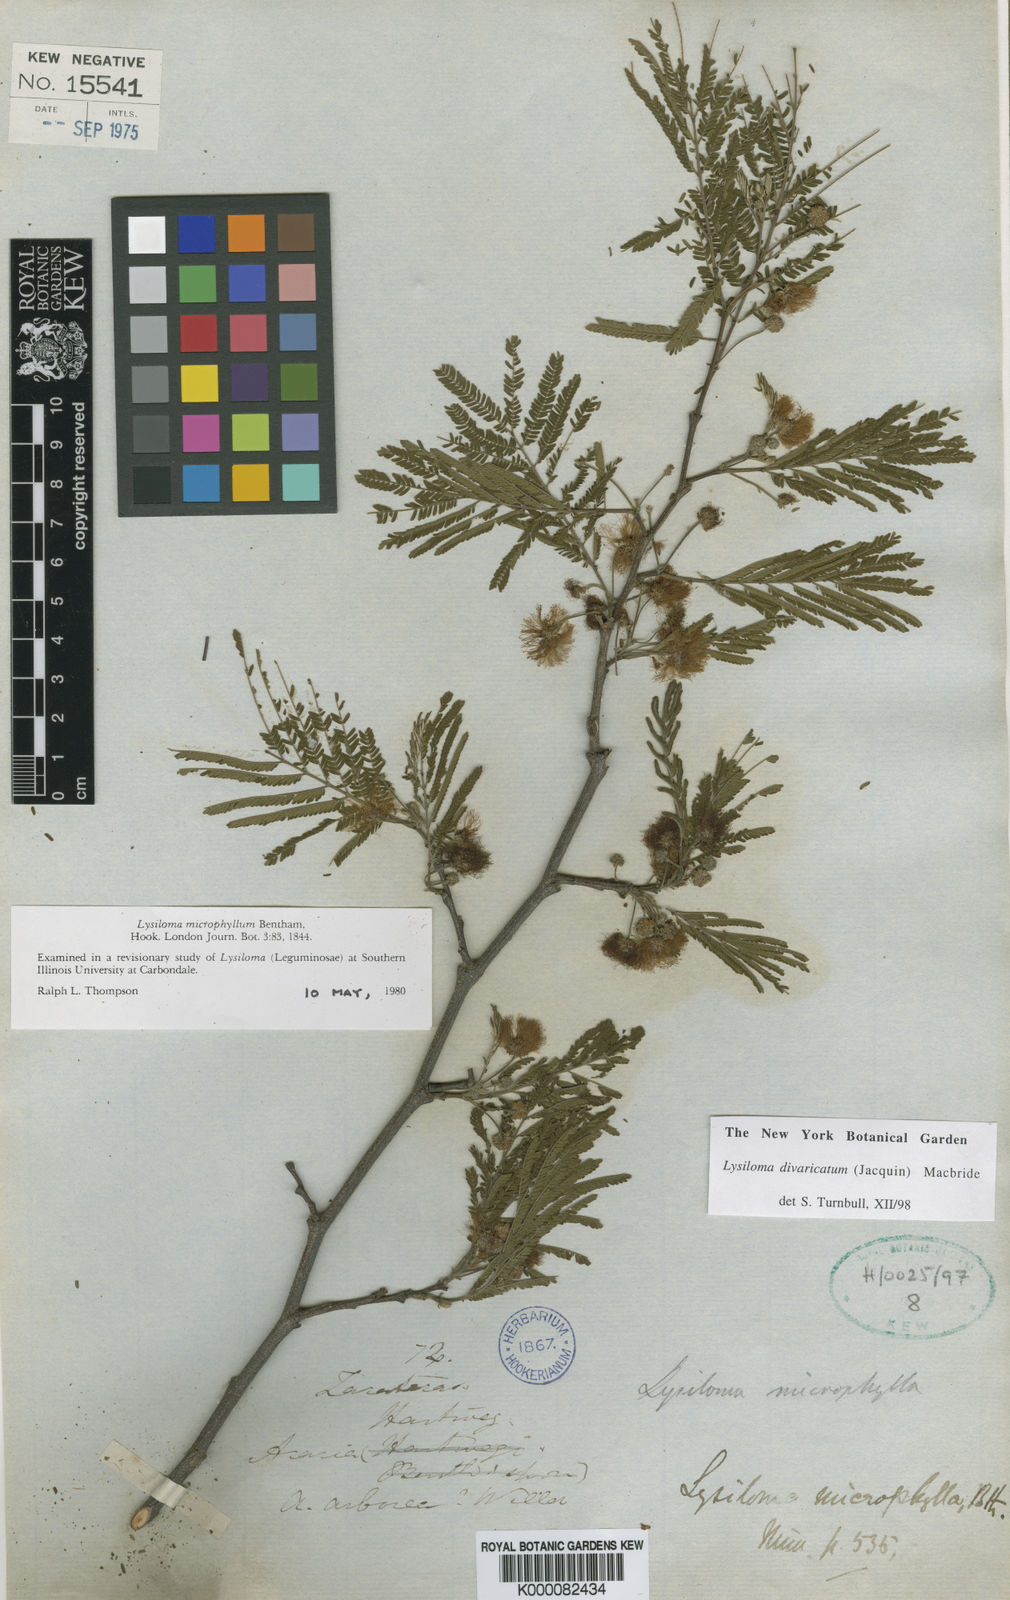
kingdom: Plantae
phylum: Tracheophyta
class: Magnoliopsida
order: Fabales
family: Fabaceae
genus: Lysiloma
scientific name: Lysiloma divaricatum
